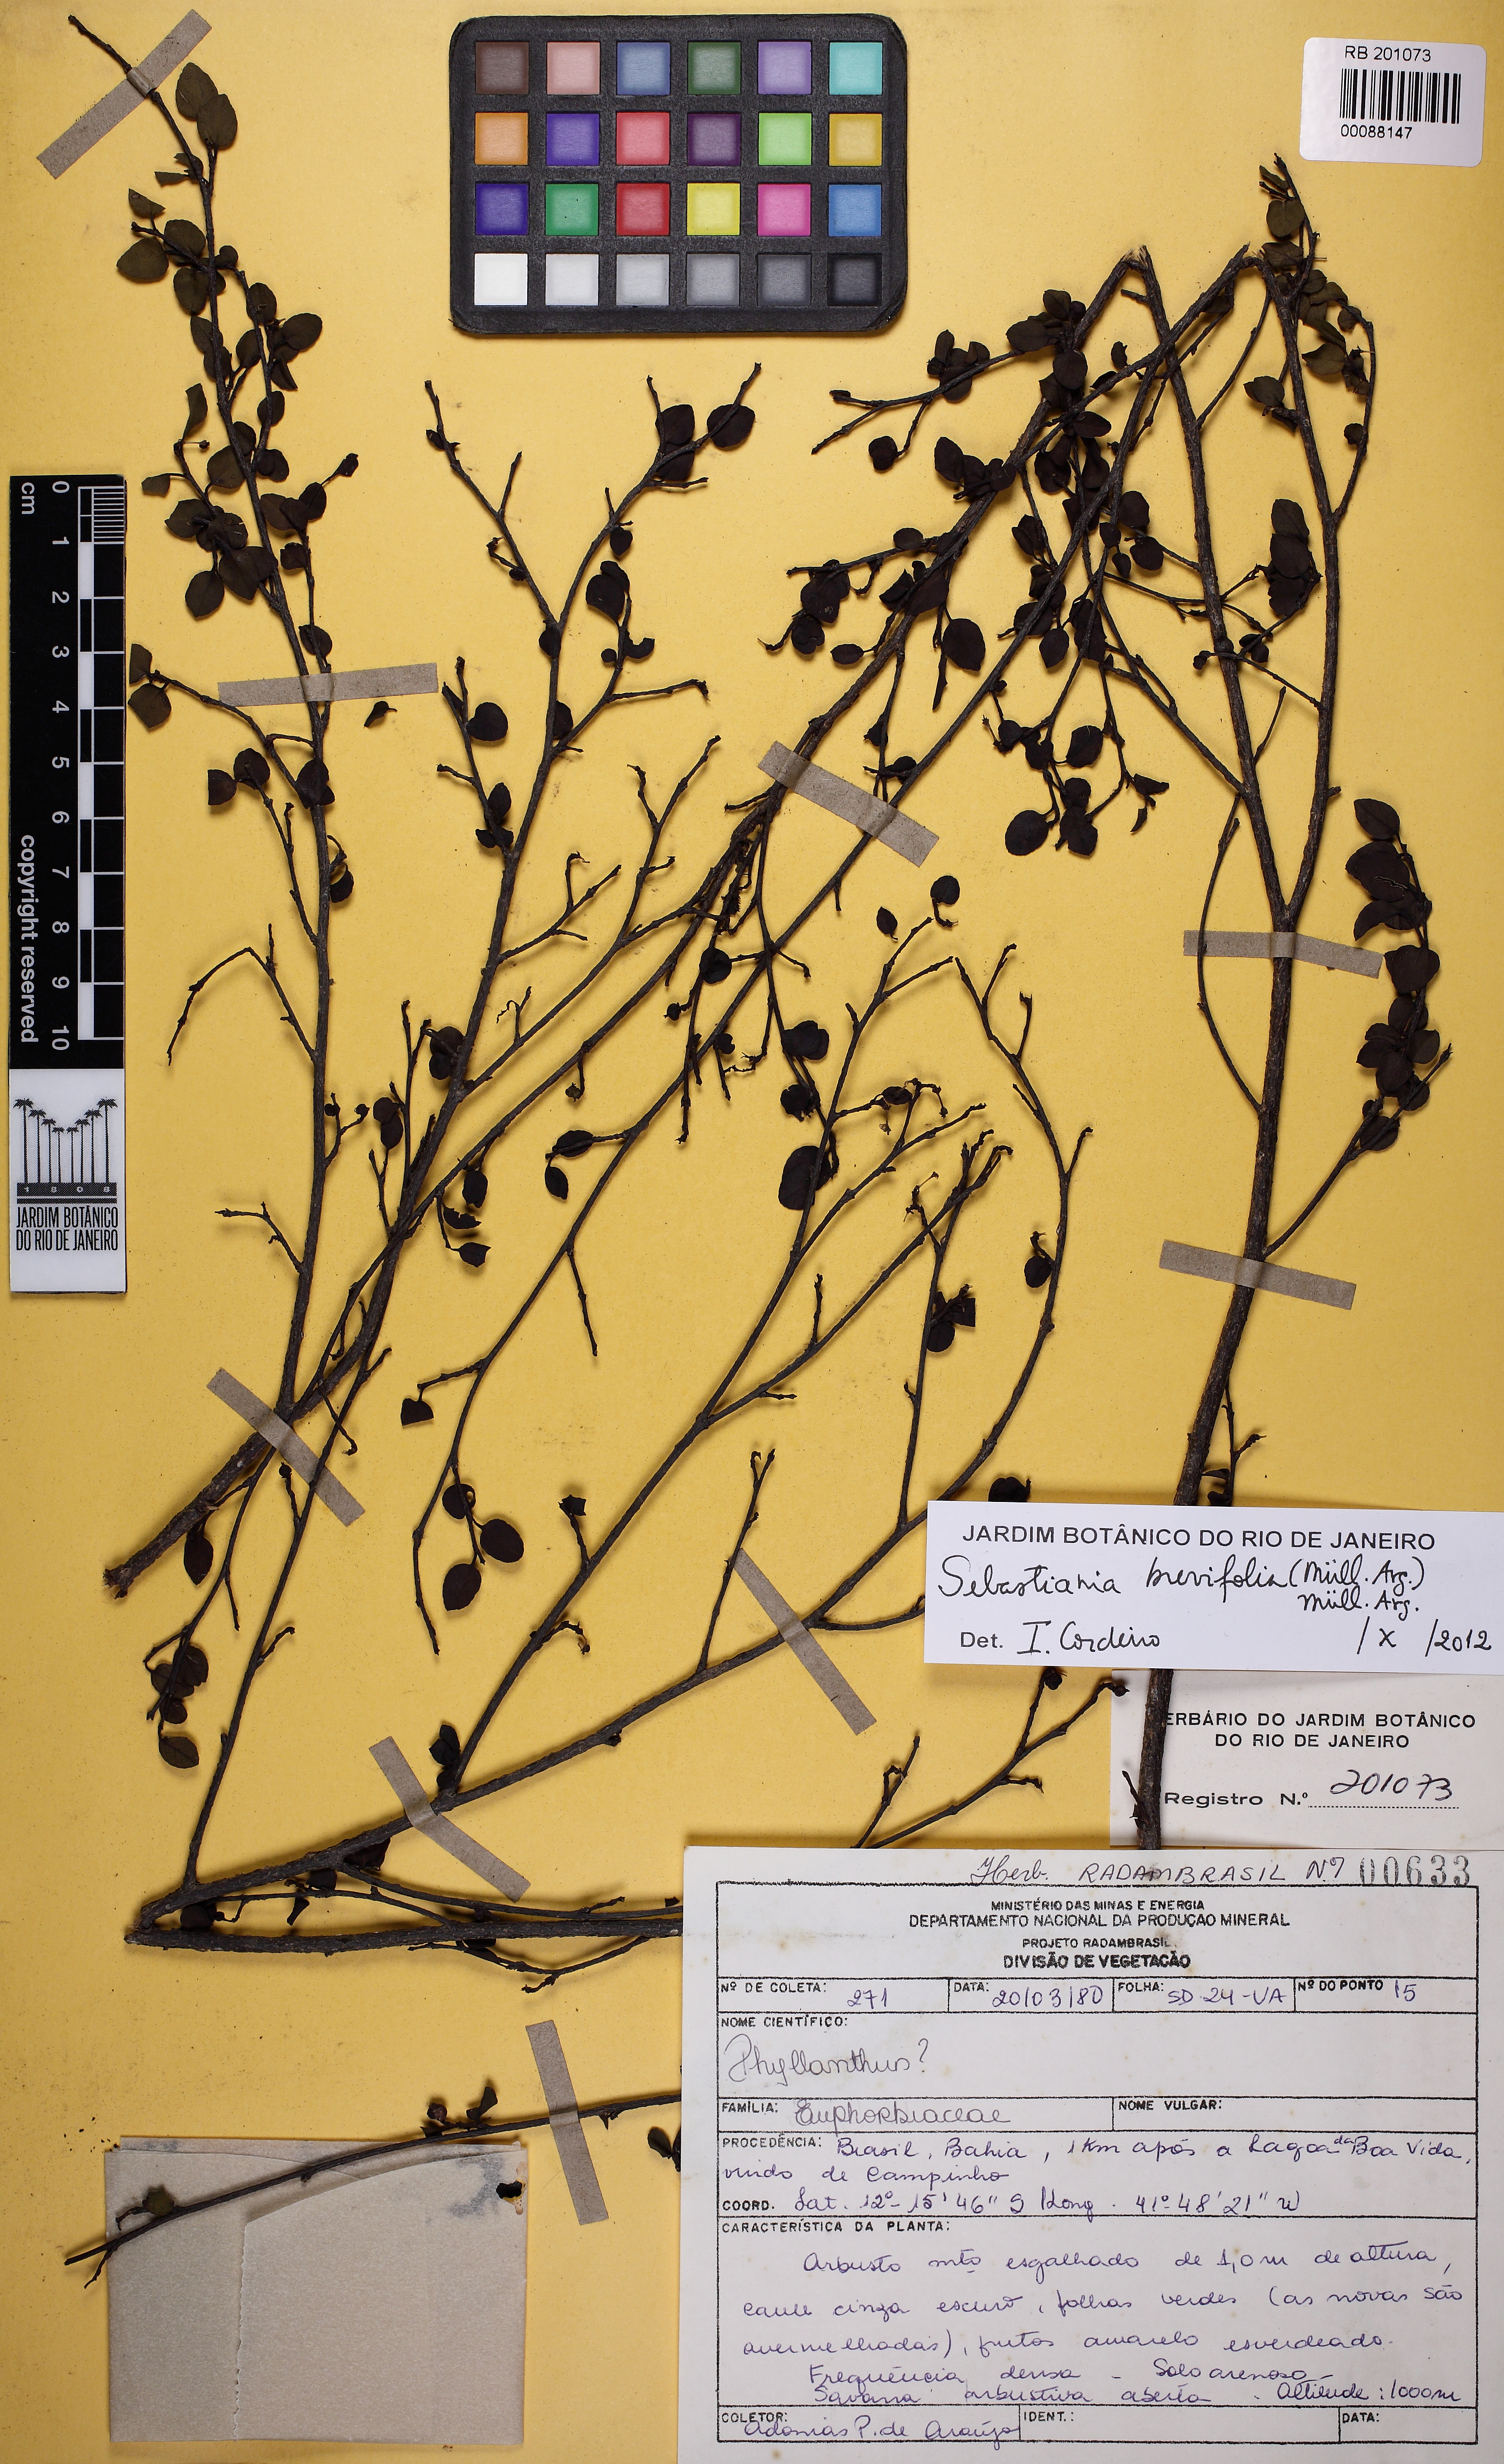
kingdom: Plantae
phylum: Tracheophyta
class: Magnoliopsida
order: Malpighiales
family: Euphorbiaceae
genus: Sebastiania
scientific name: Sebastiania brevifolia
